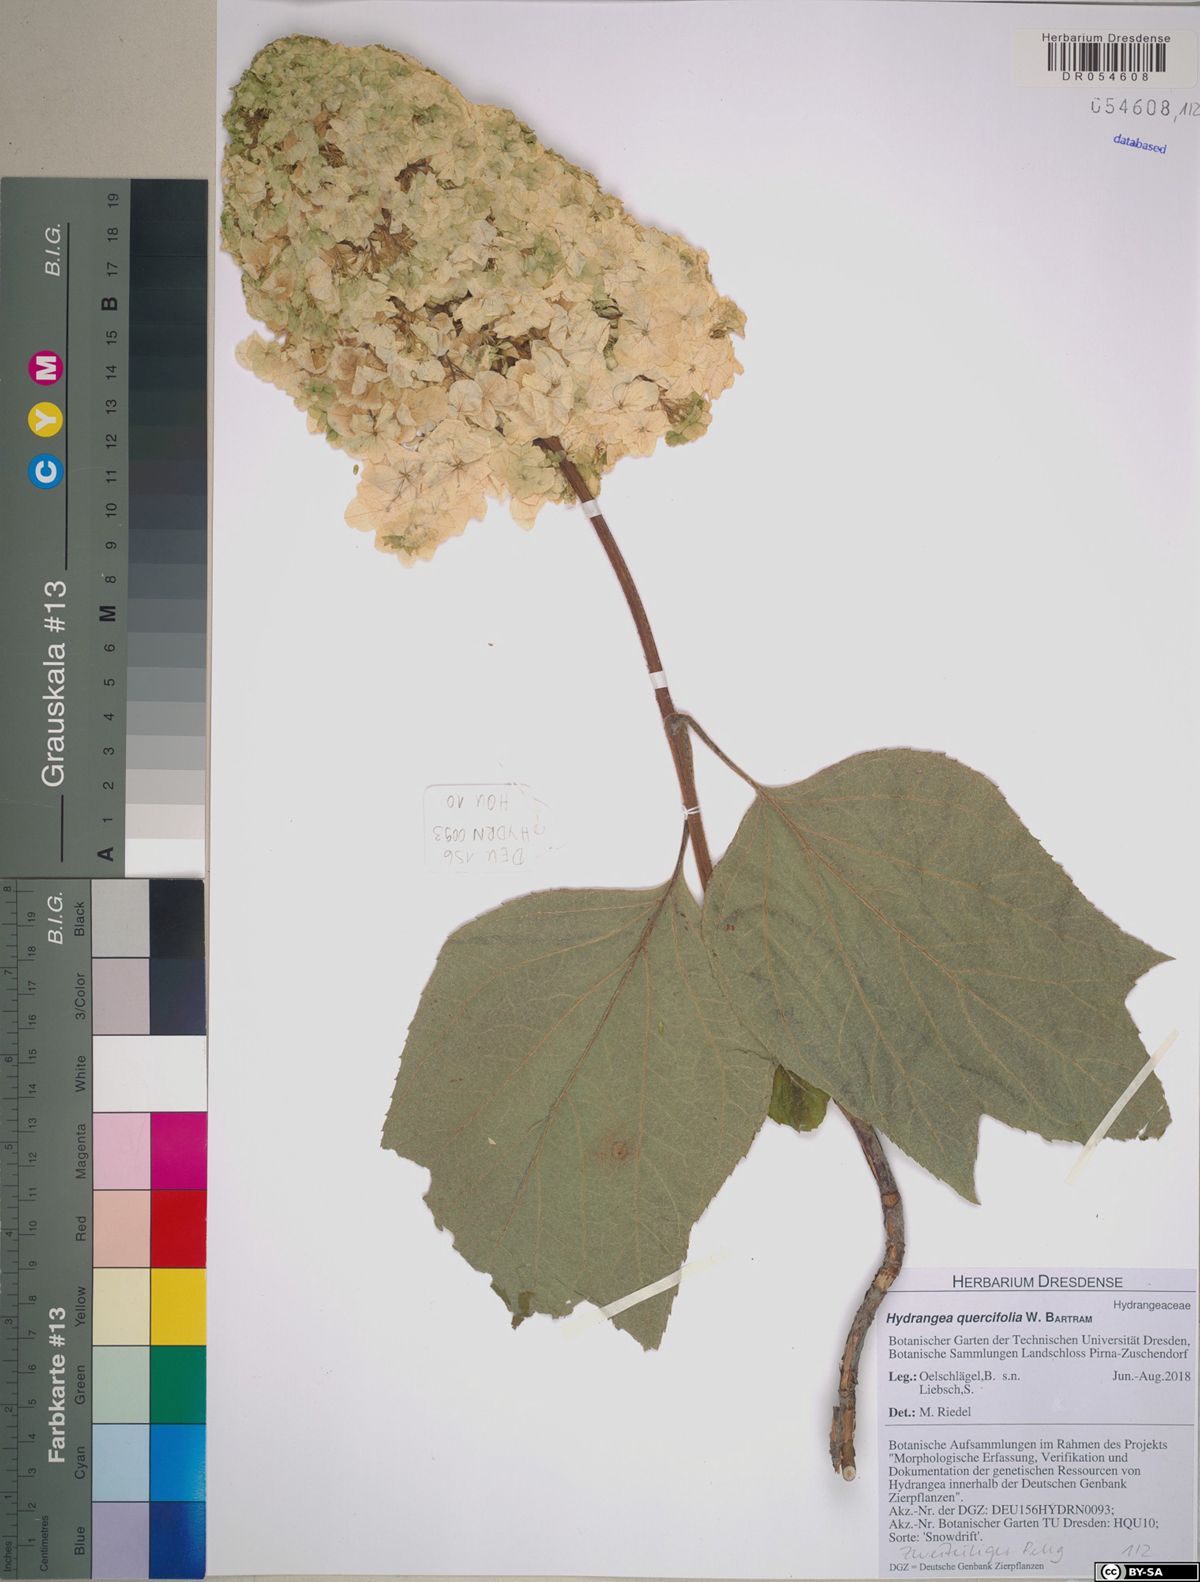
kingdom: Plantae
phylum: Tracheophyta
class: Magnoliopsida
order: Cornales
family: Hydrangeaceae
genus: Hydrangea
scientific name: Hydrangea quercifolia
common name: Oak-leaf hydrangea
